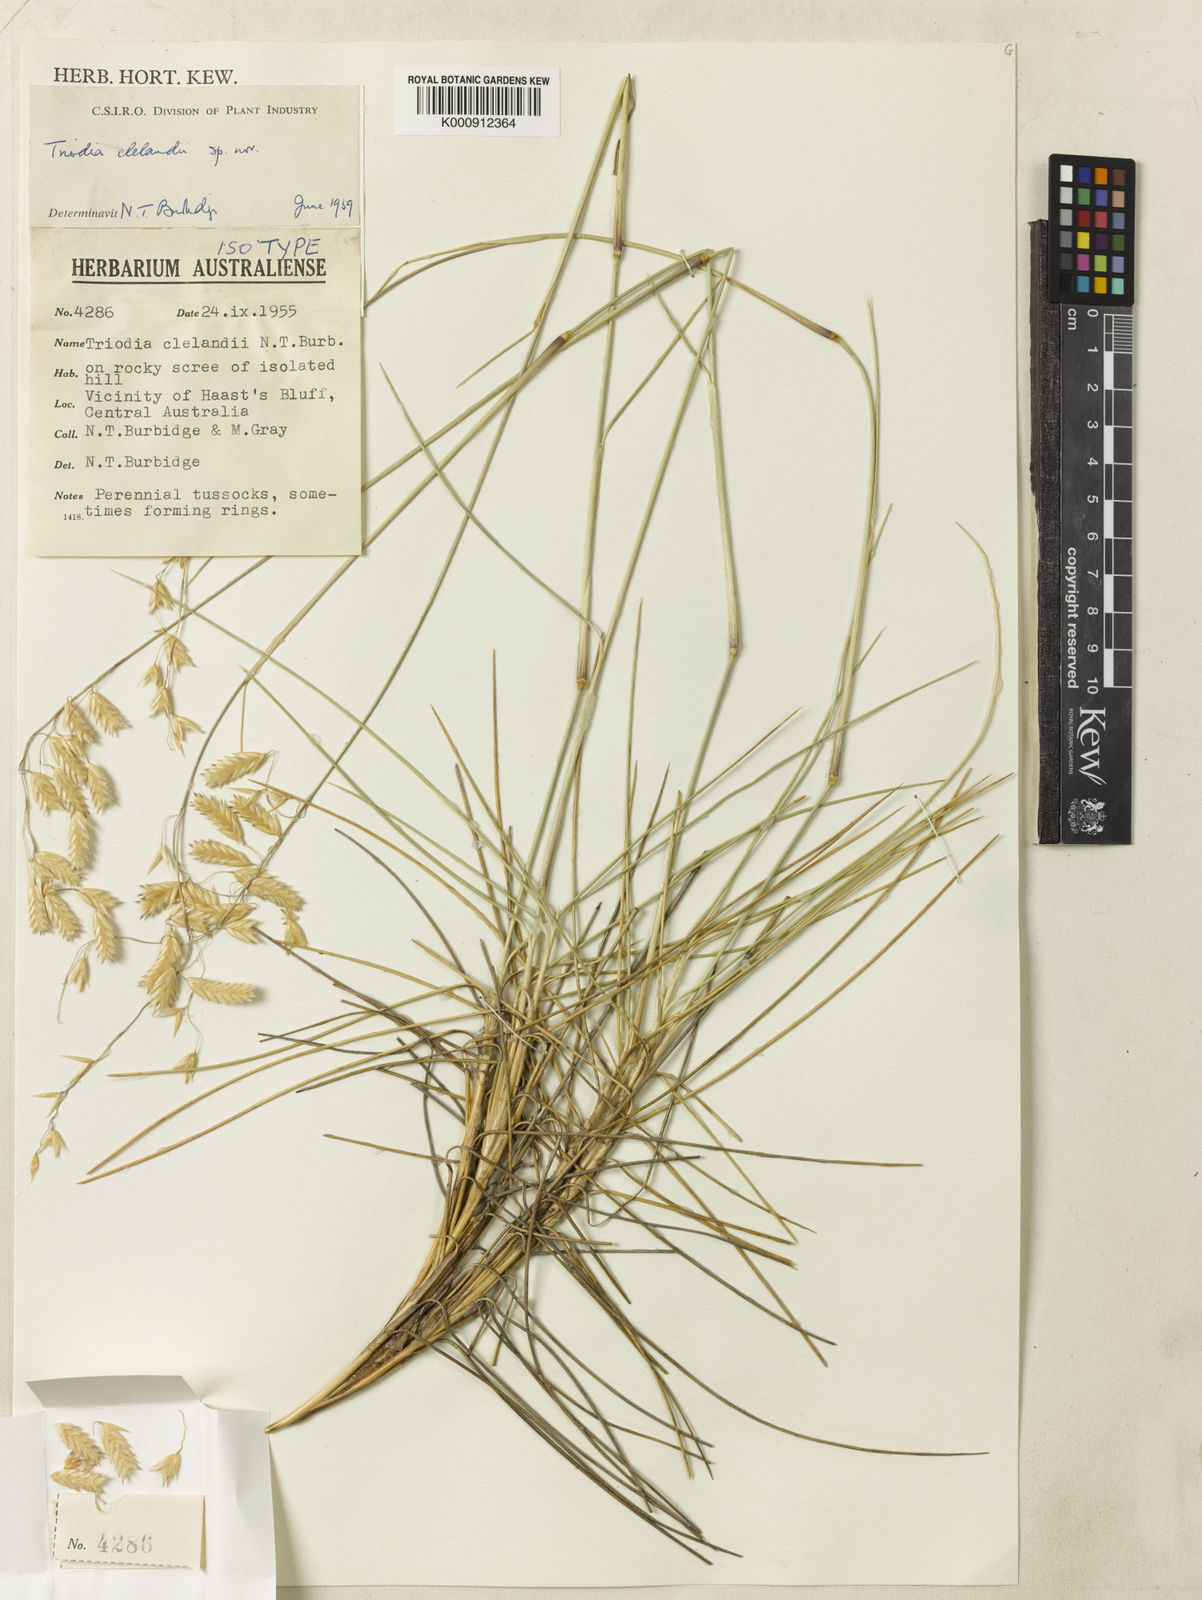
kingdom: Plantae
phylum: Tracheophyta
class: Liliopsida
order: Poales
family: Poaceae
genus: Triodia
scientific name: Triodia brizoides
